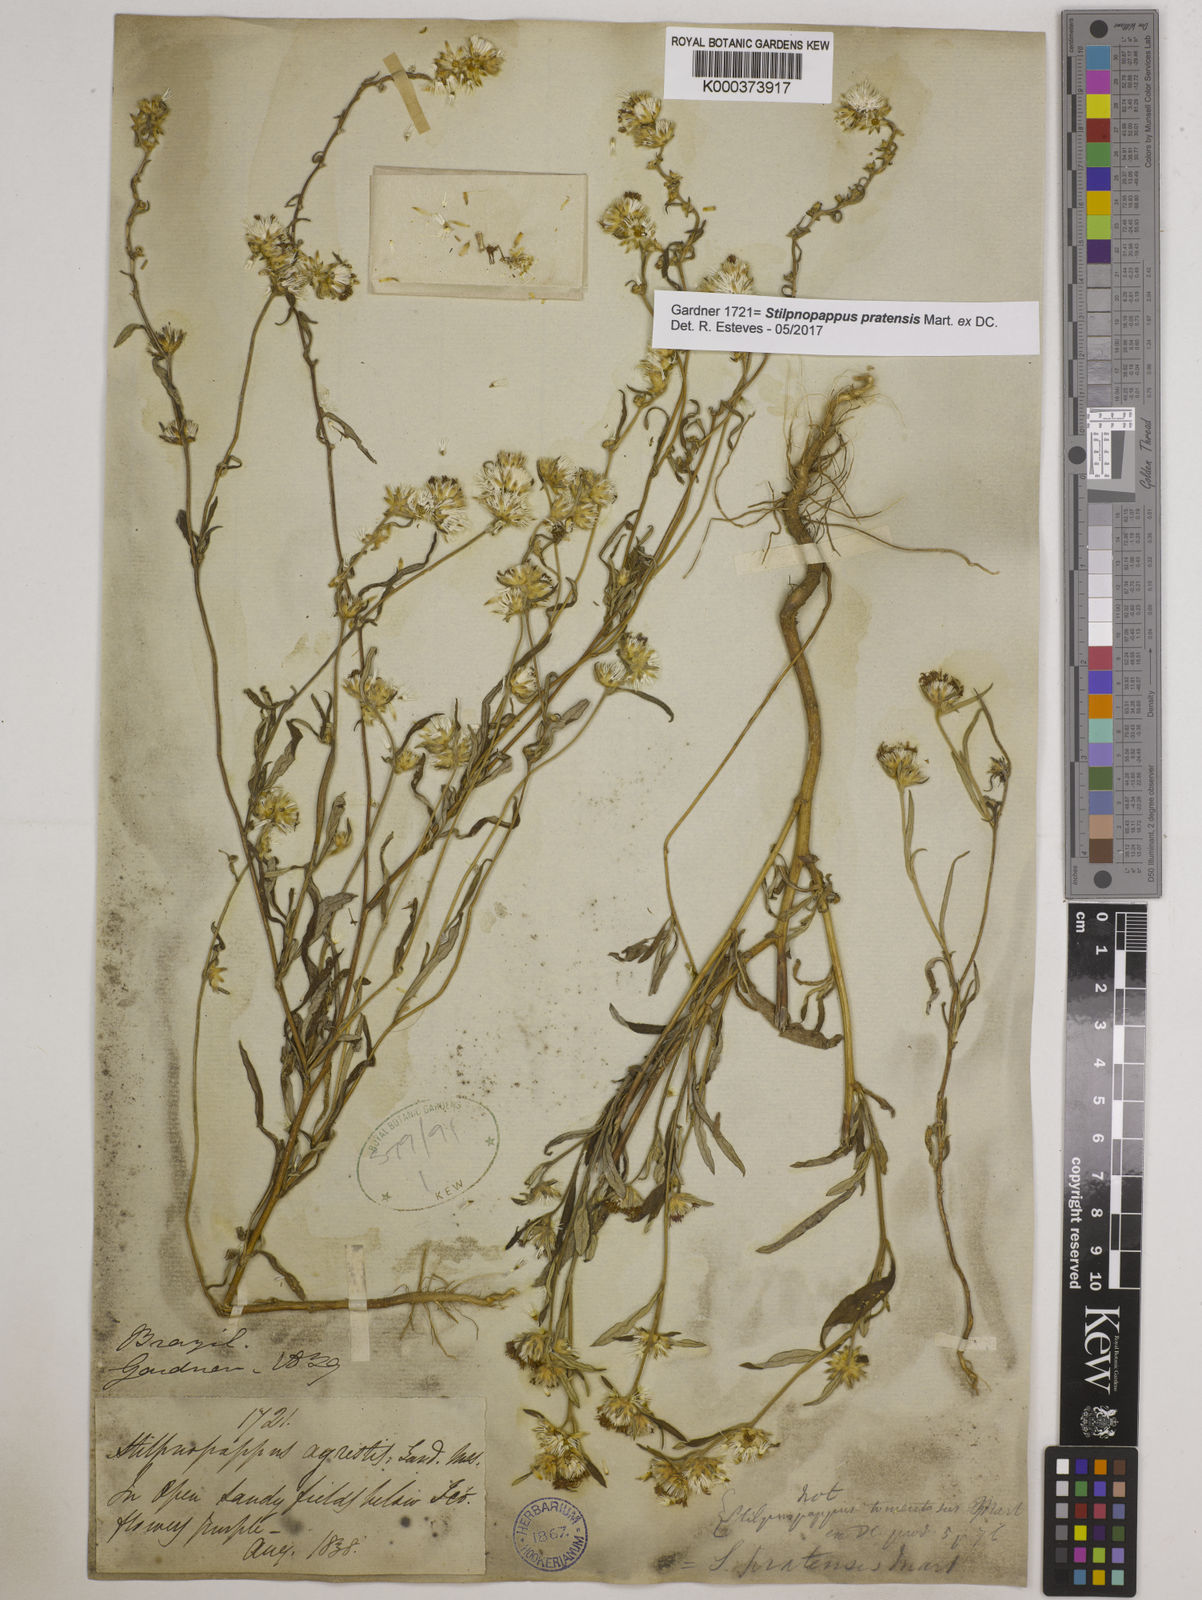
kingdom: Plantae
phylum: Tracheophyta
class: Magnoliopsida
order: Asterales
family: Asteraceae
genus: Stilpnopappus
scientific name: Stilpnopappus pratensis
